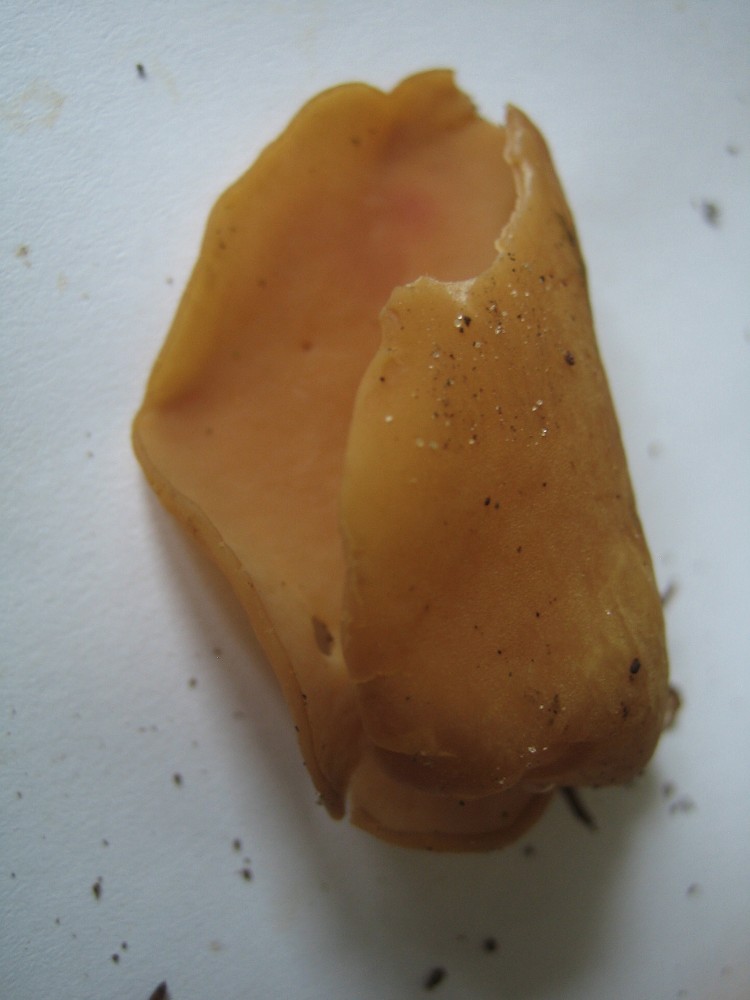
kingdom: Fungi
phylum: Ascomycota
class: Pezizomycetes
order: Pezizales
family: Otideaceae
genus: Otidea
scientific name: Otidea leporina
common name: hare-ørebæger
